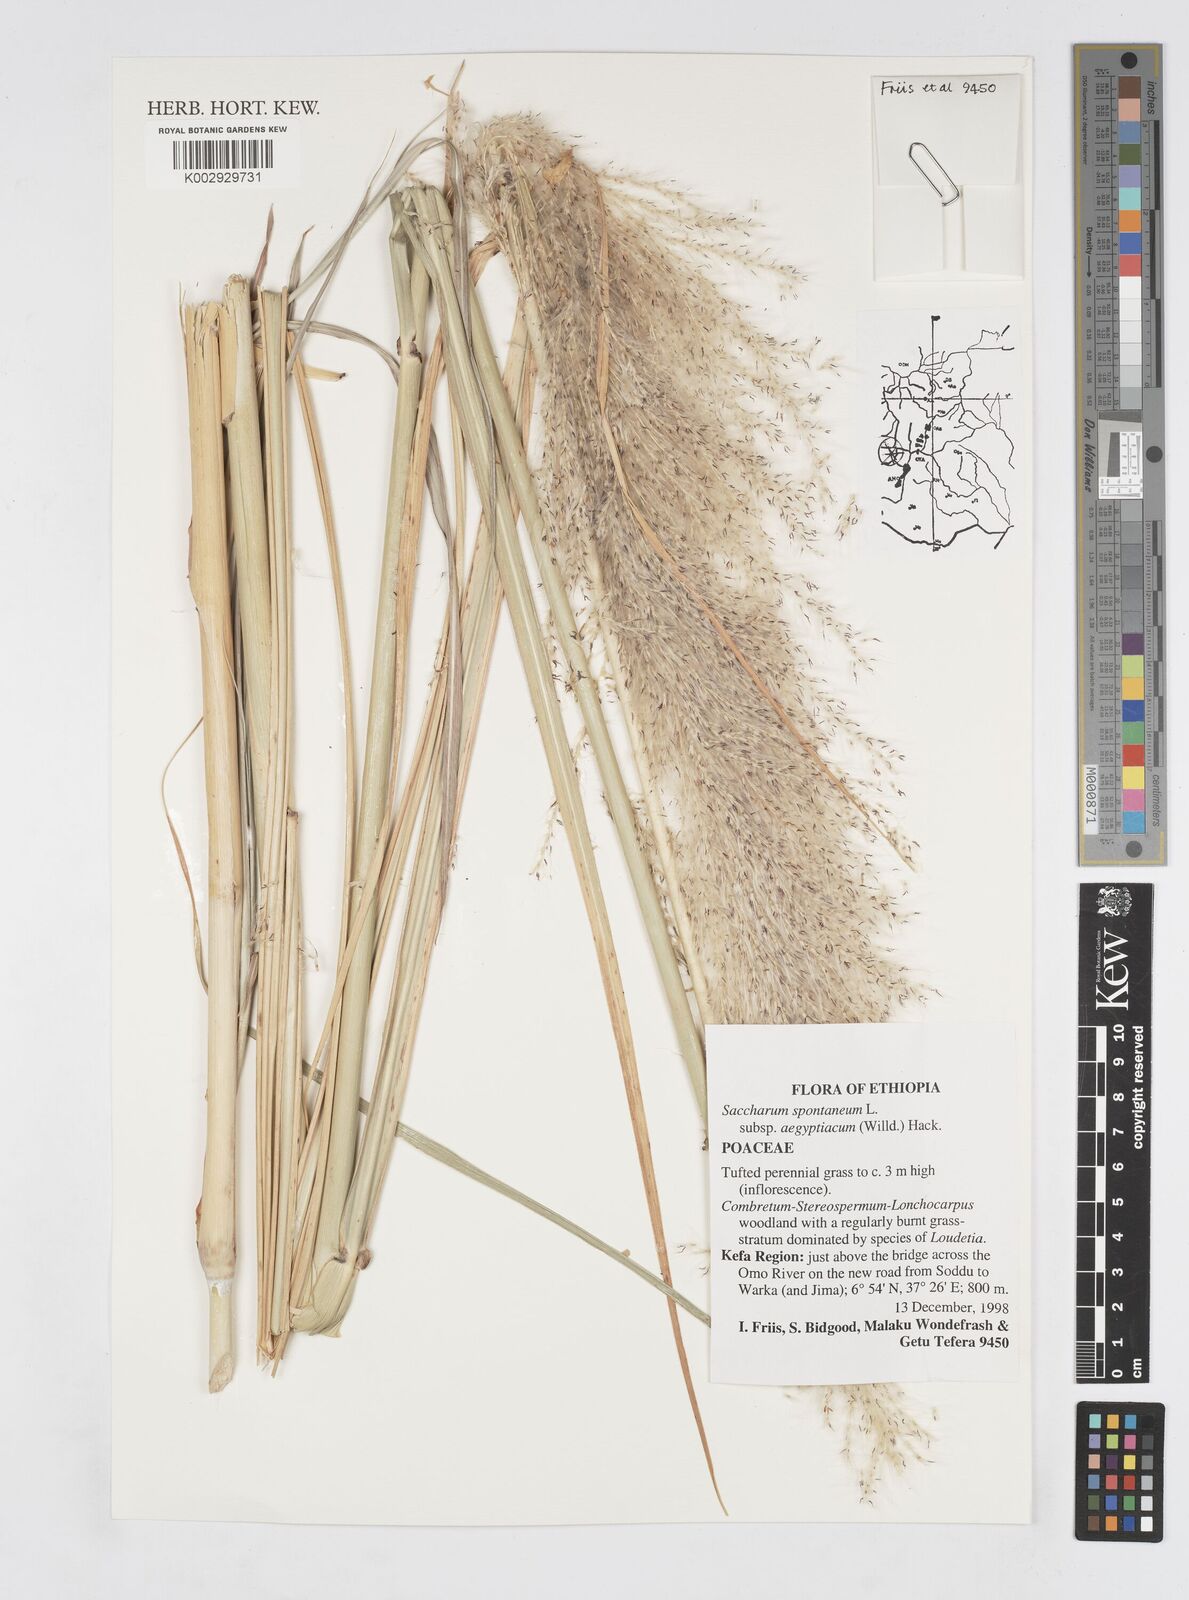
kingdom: Plantae
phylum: Tracheophyta
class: Liliopsida
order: Poales
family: Poaceae
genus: Saccharum
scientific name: Saccharum spontaneum
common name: Wild sugarcane
